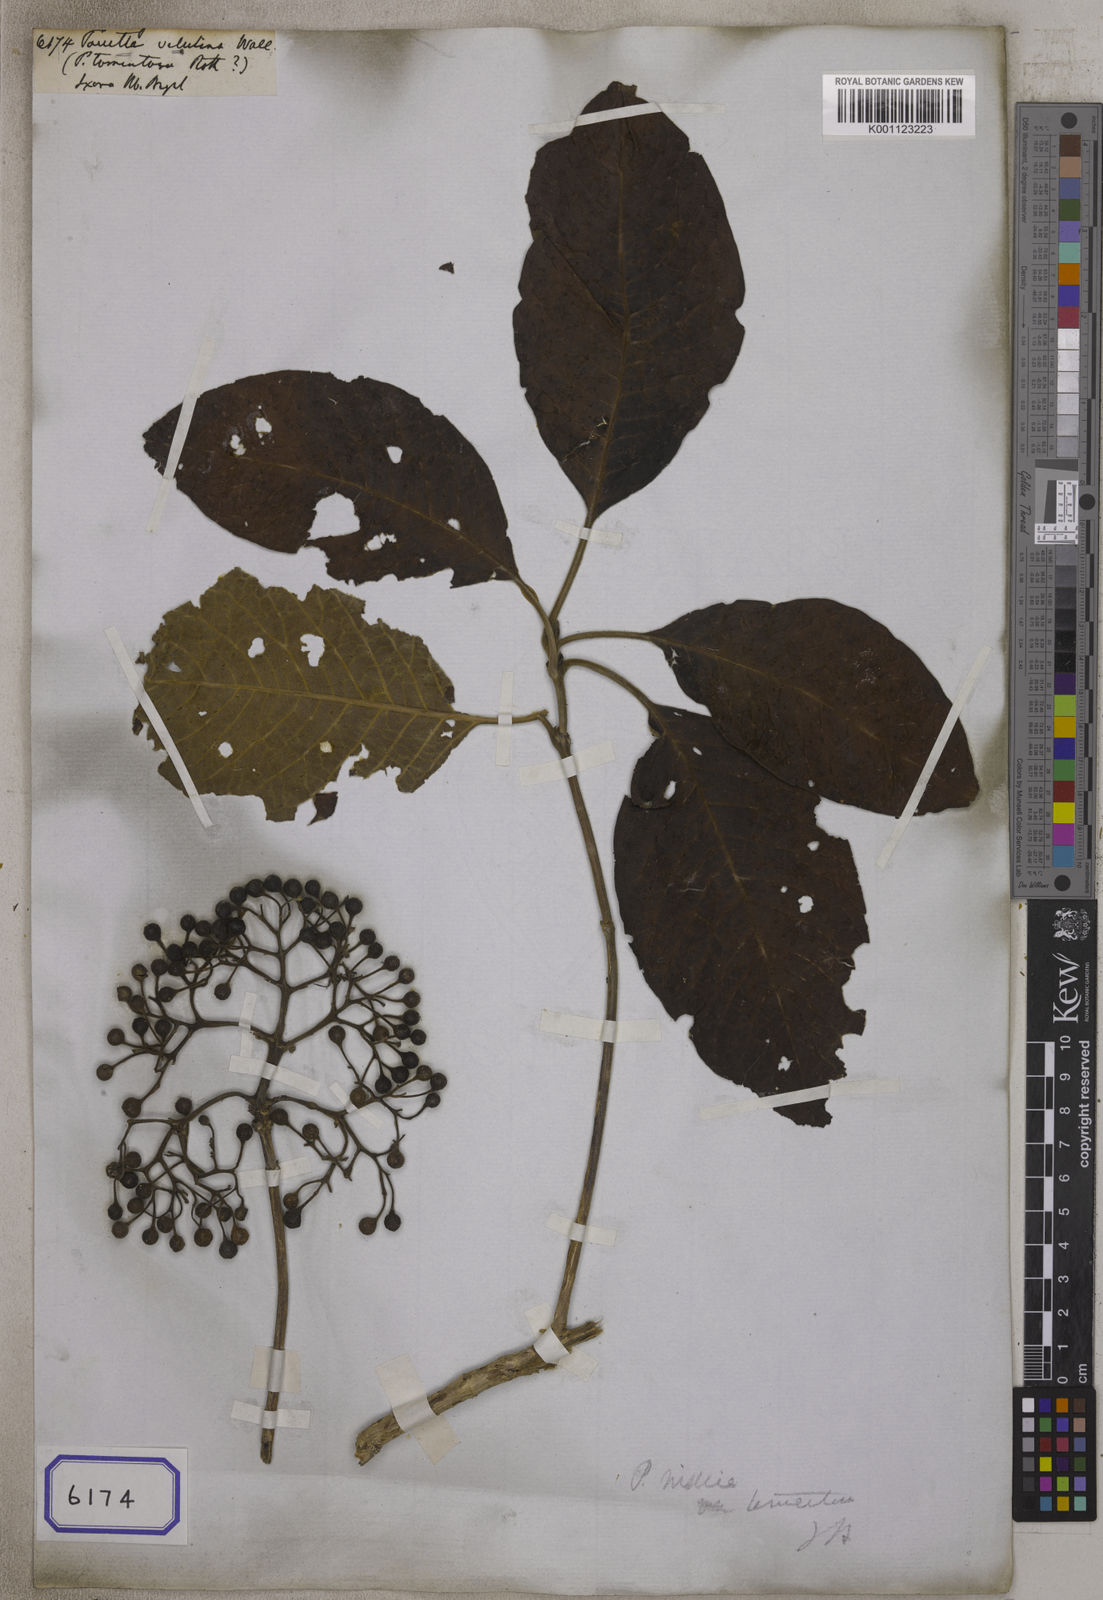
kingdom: Plantae
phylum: Tracheophyta
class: Magnoliopsida
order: Gentianales
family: Rubiaceae
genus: Pavetta
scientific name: Pavetta tomentosa
